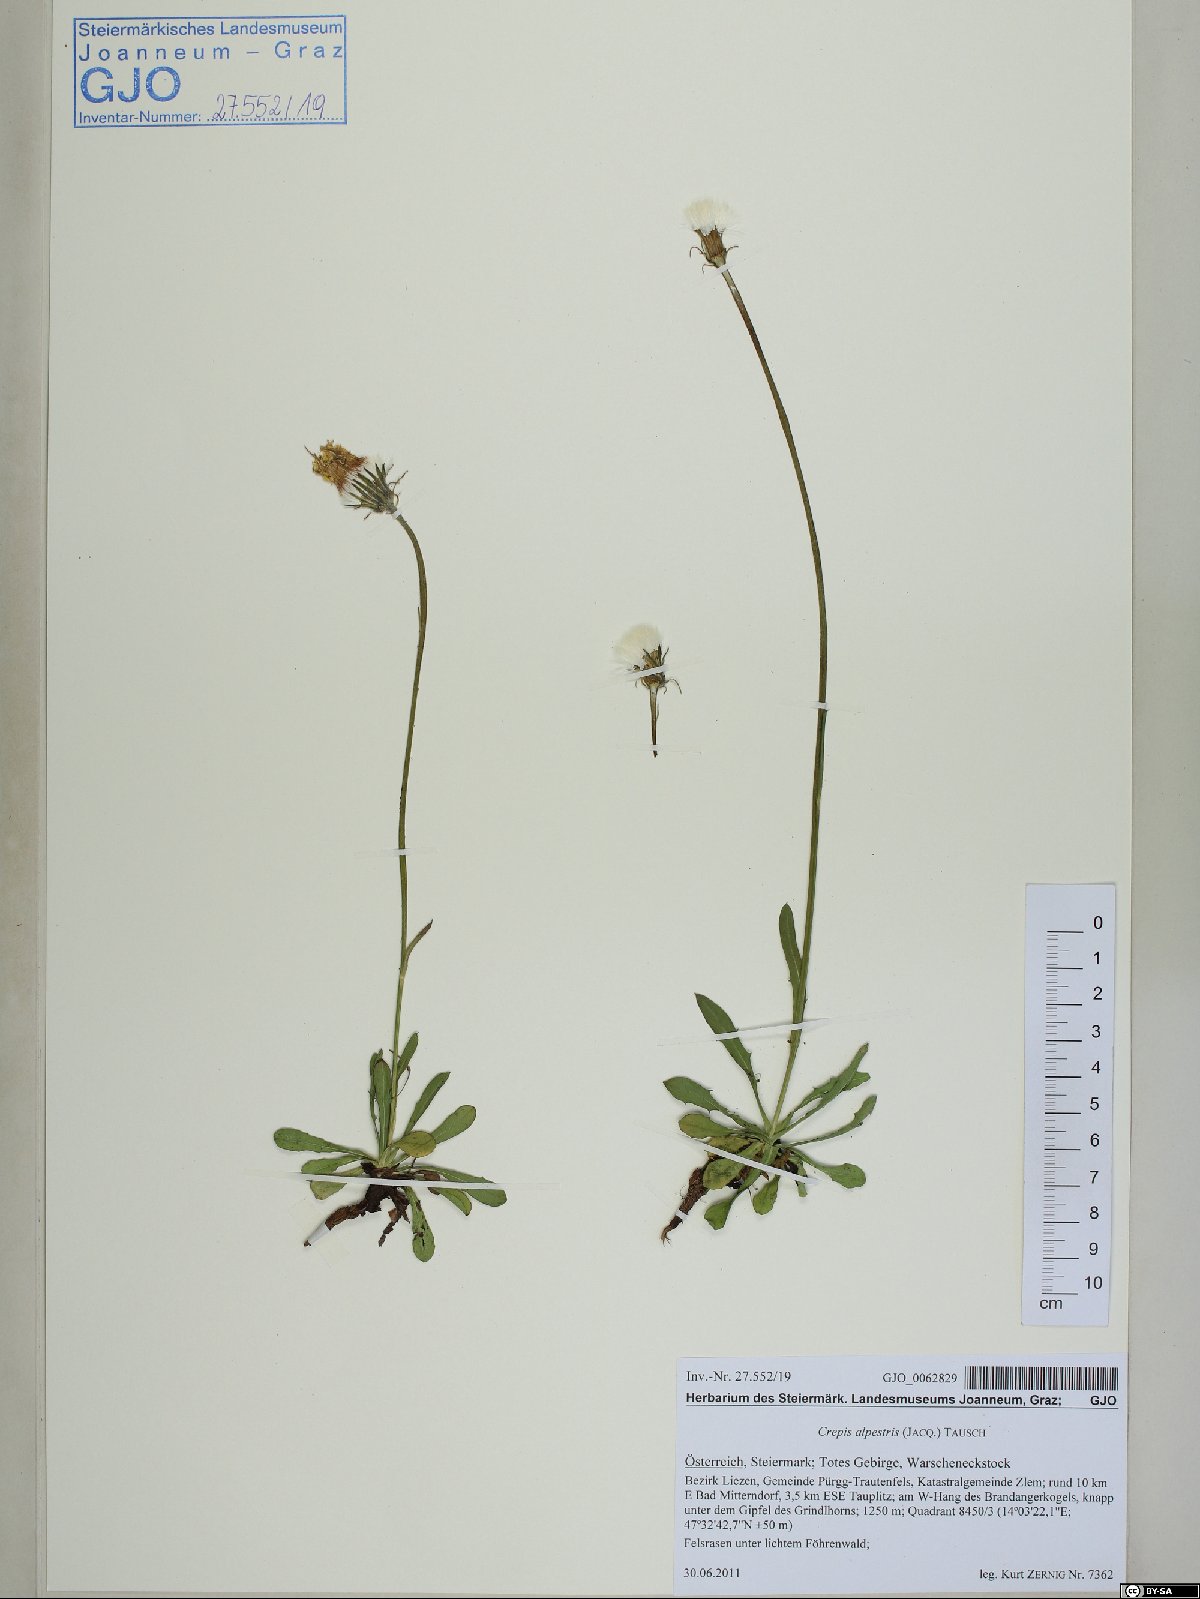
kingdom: Plantae
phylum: Tracheophyta
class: Magnoliopsida
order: Asterales
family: Asteraceae
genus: Crepis
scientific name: Crepis alpestris
